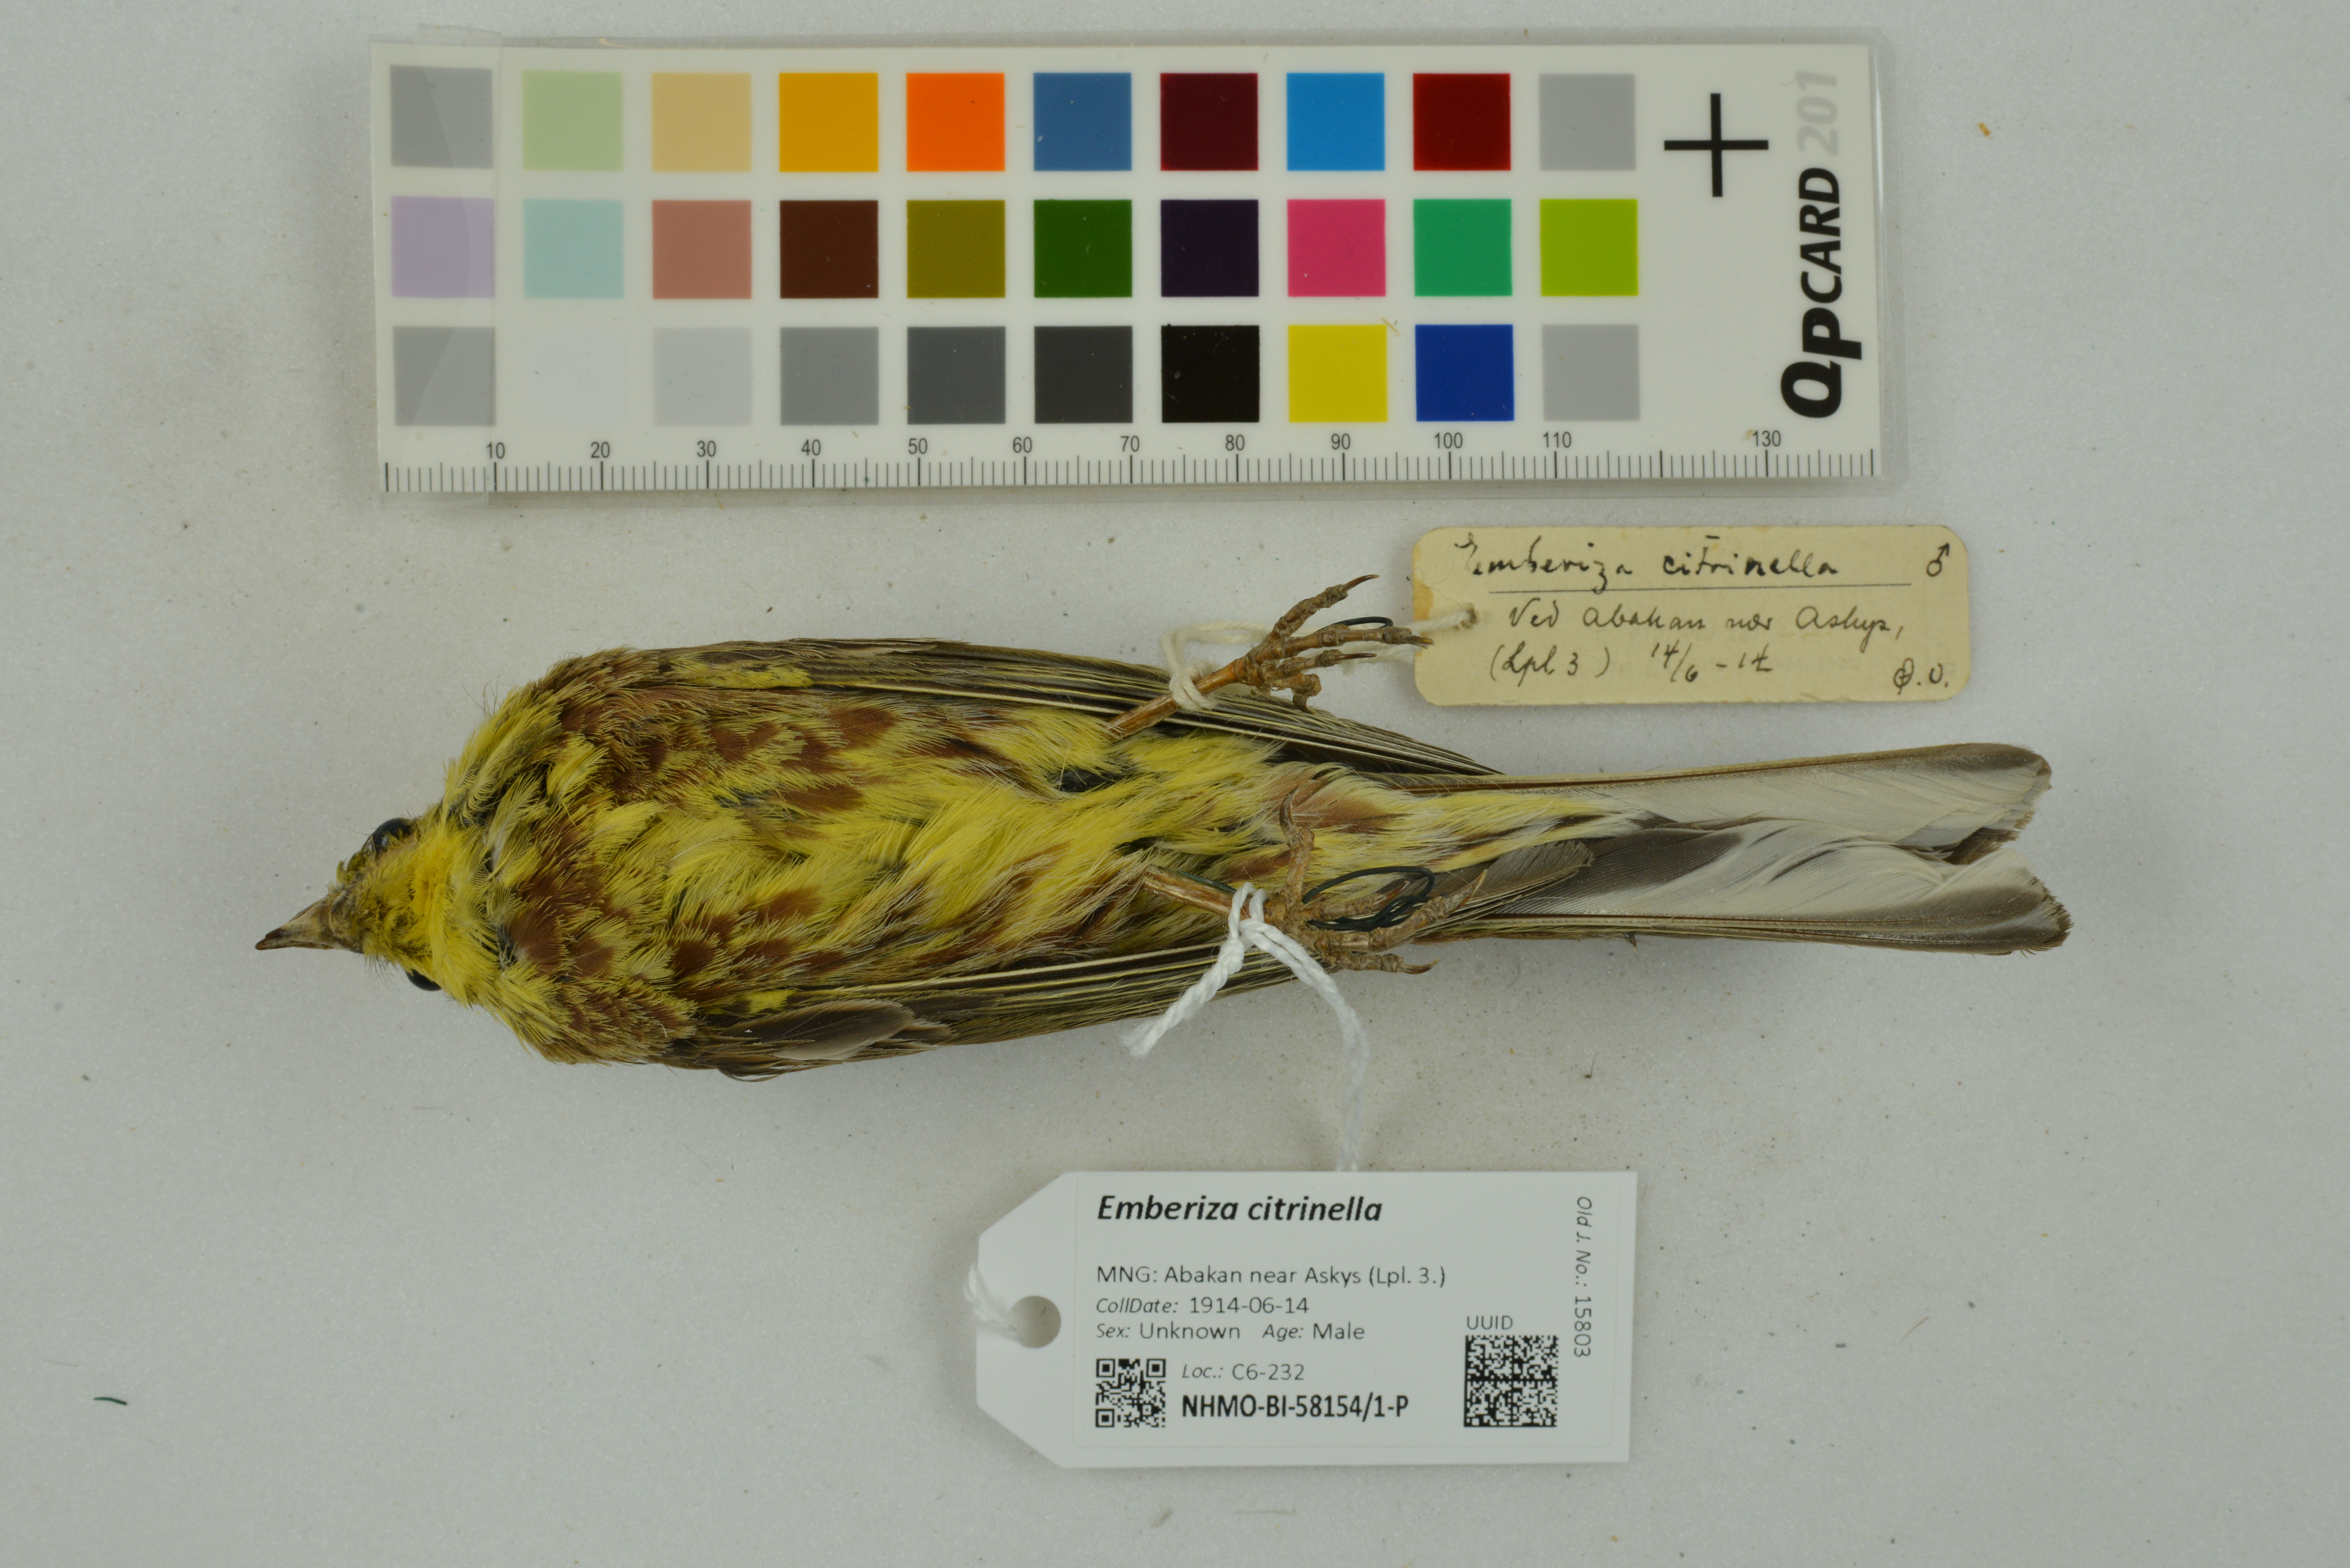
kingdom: Animalia
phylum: Chordata
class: Aves
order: Passeriformes
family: Emberizidae
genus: Emberiza
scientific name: Emberiza citrinella
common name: Yellowhammer
